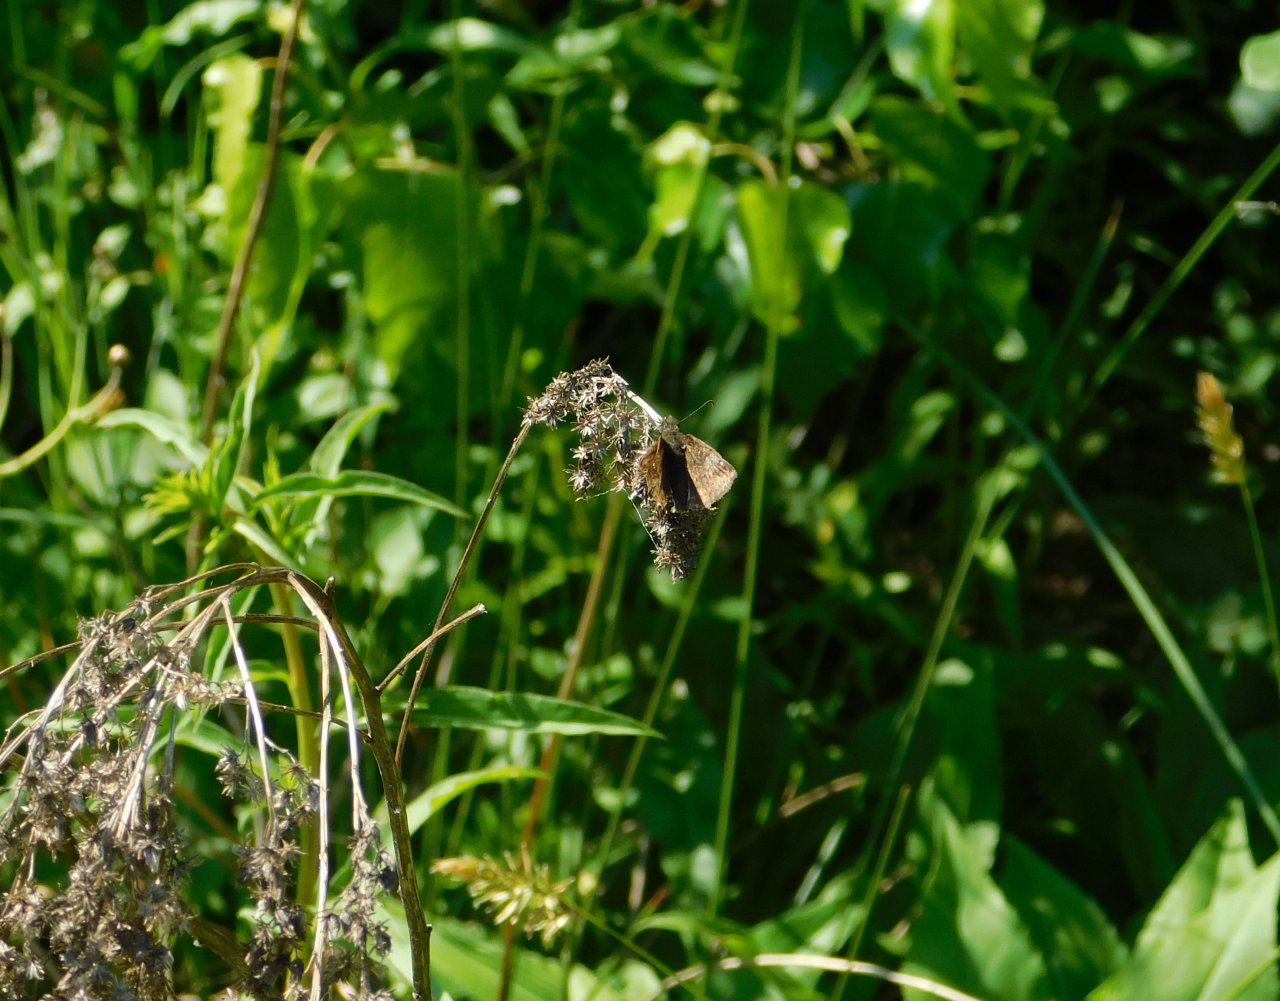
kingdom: Animalia
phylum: Arthropoda
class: Insecta
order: Lepidoptera
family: Hesperiidae
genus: Erynnis
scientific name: Erynnis icelus
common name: Dreamy Duskywing
